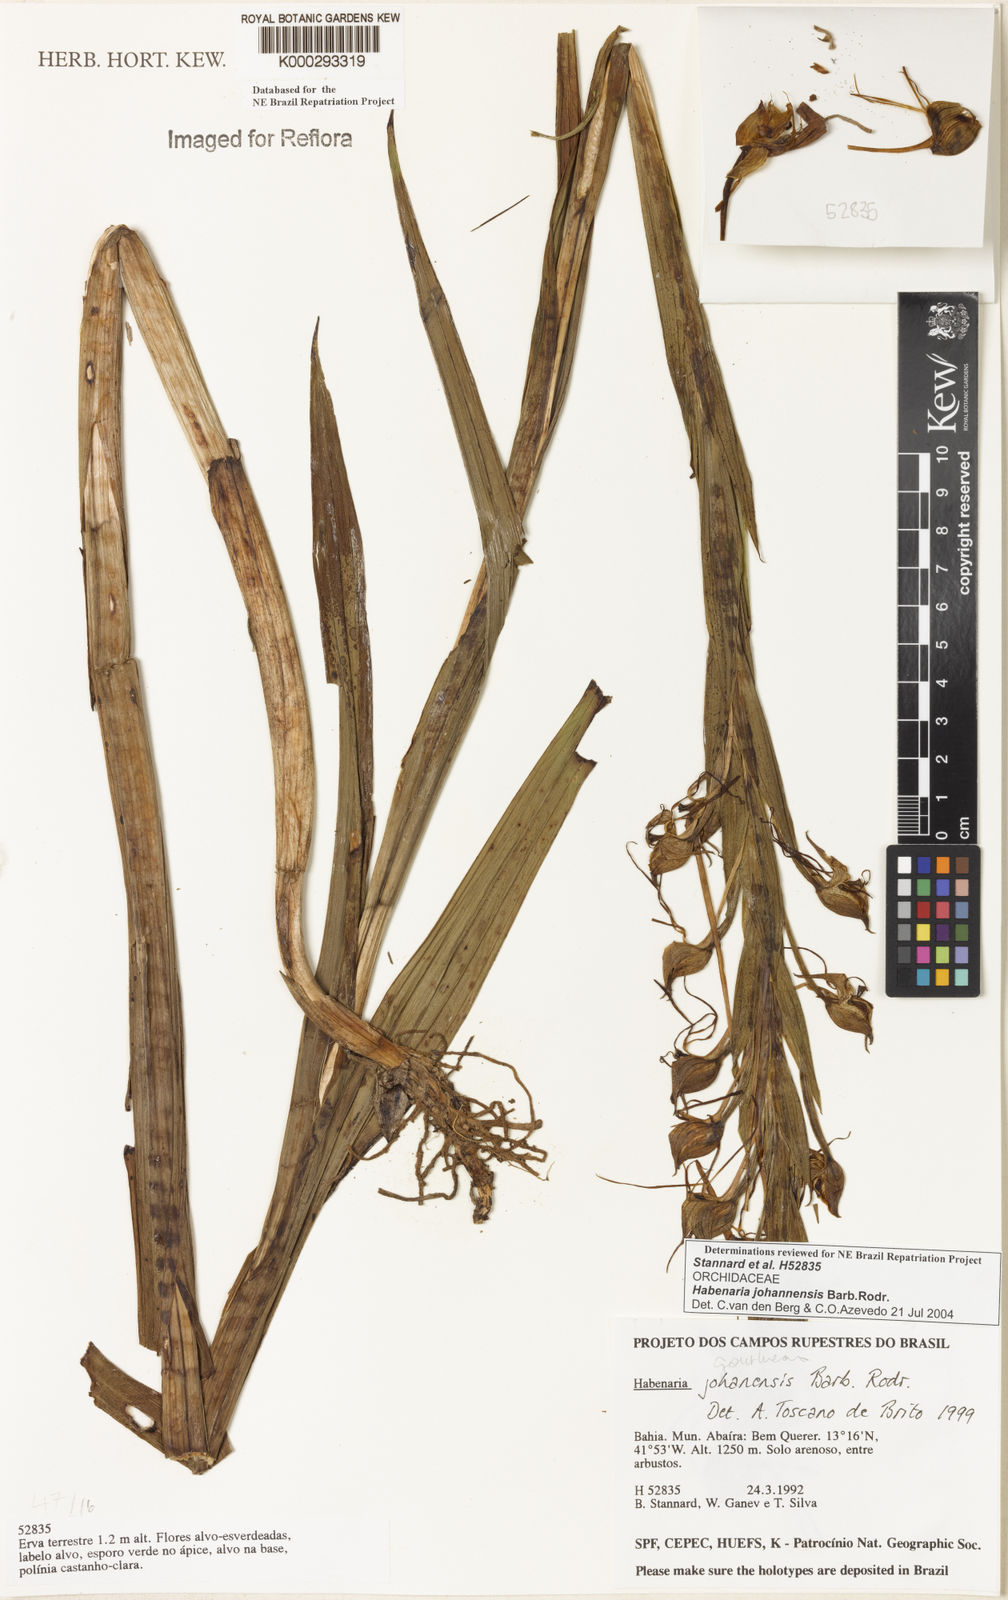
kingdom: Plantae
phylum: Tracheophyta
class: Liliopsida
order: Asparagales
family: Orchidaceae
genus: Habenaria
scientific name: Habenaria johannensis
